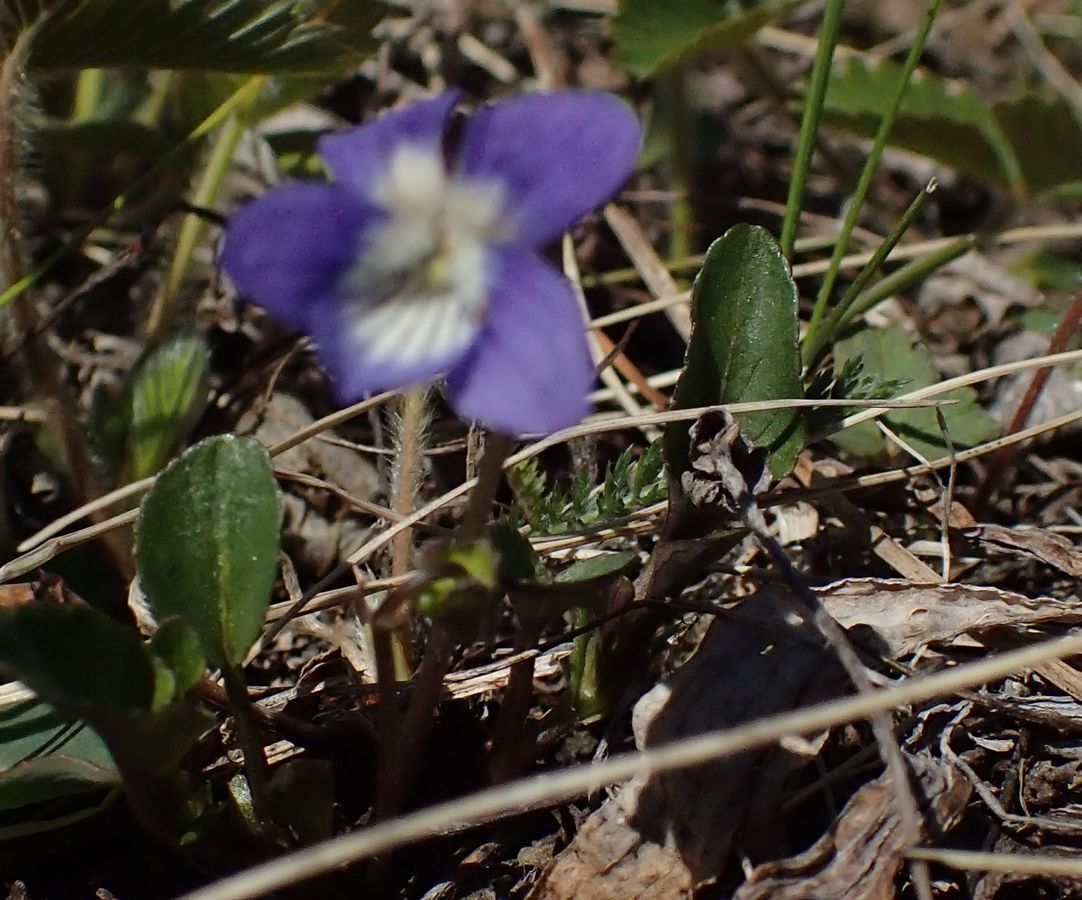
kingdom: Plantae
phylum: Tracheophyta
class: Magnoliopsida
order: Malpighiales
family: Violaceae
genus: Viola
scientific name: Viola
